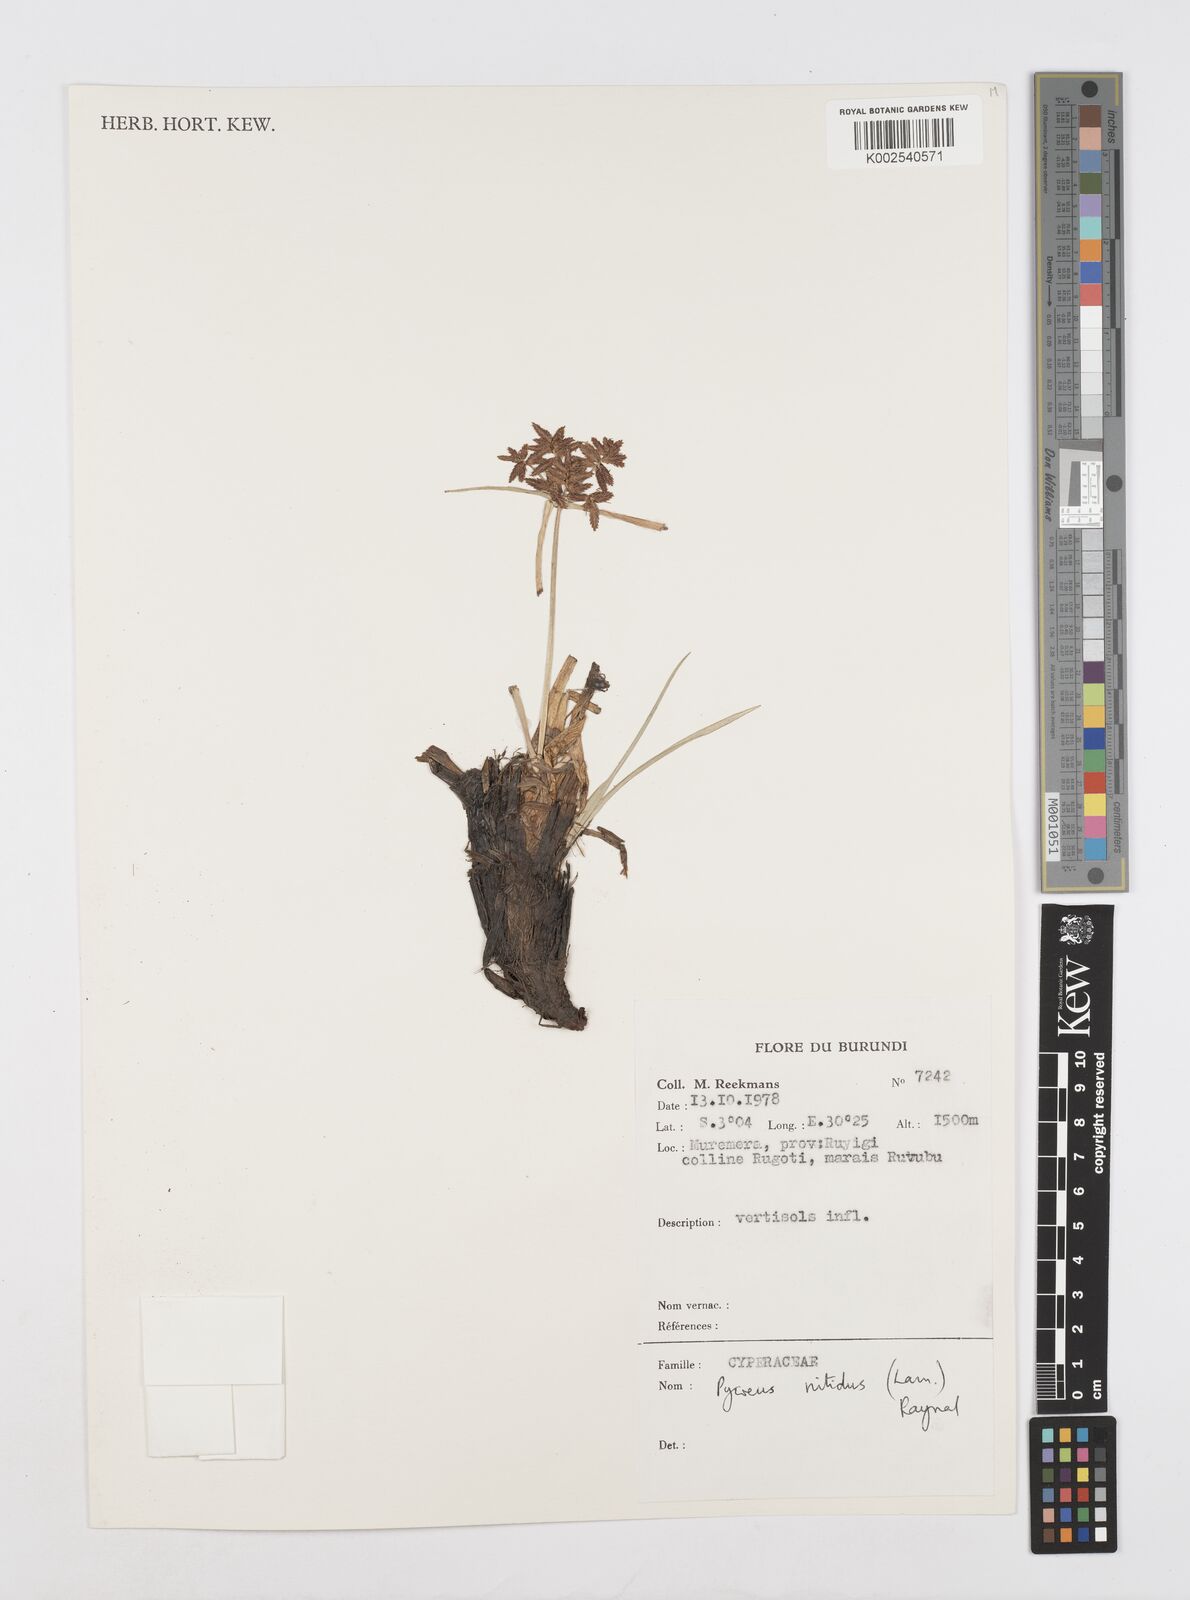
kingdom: Plantae
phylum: Tracheophyta
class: Liliopsida
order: Poales
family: Cyperaceae
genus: Cyperus
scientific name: Cyperus nitidus
